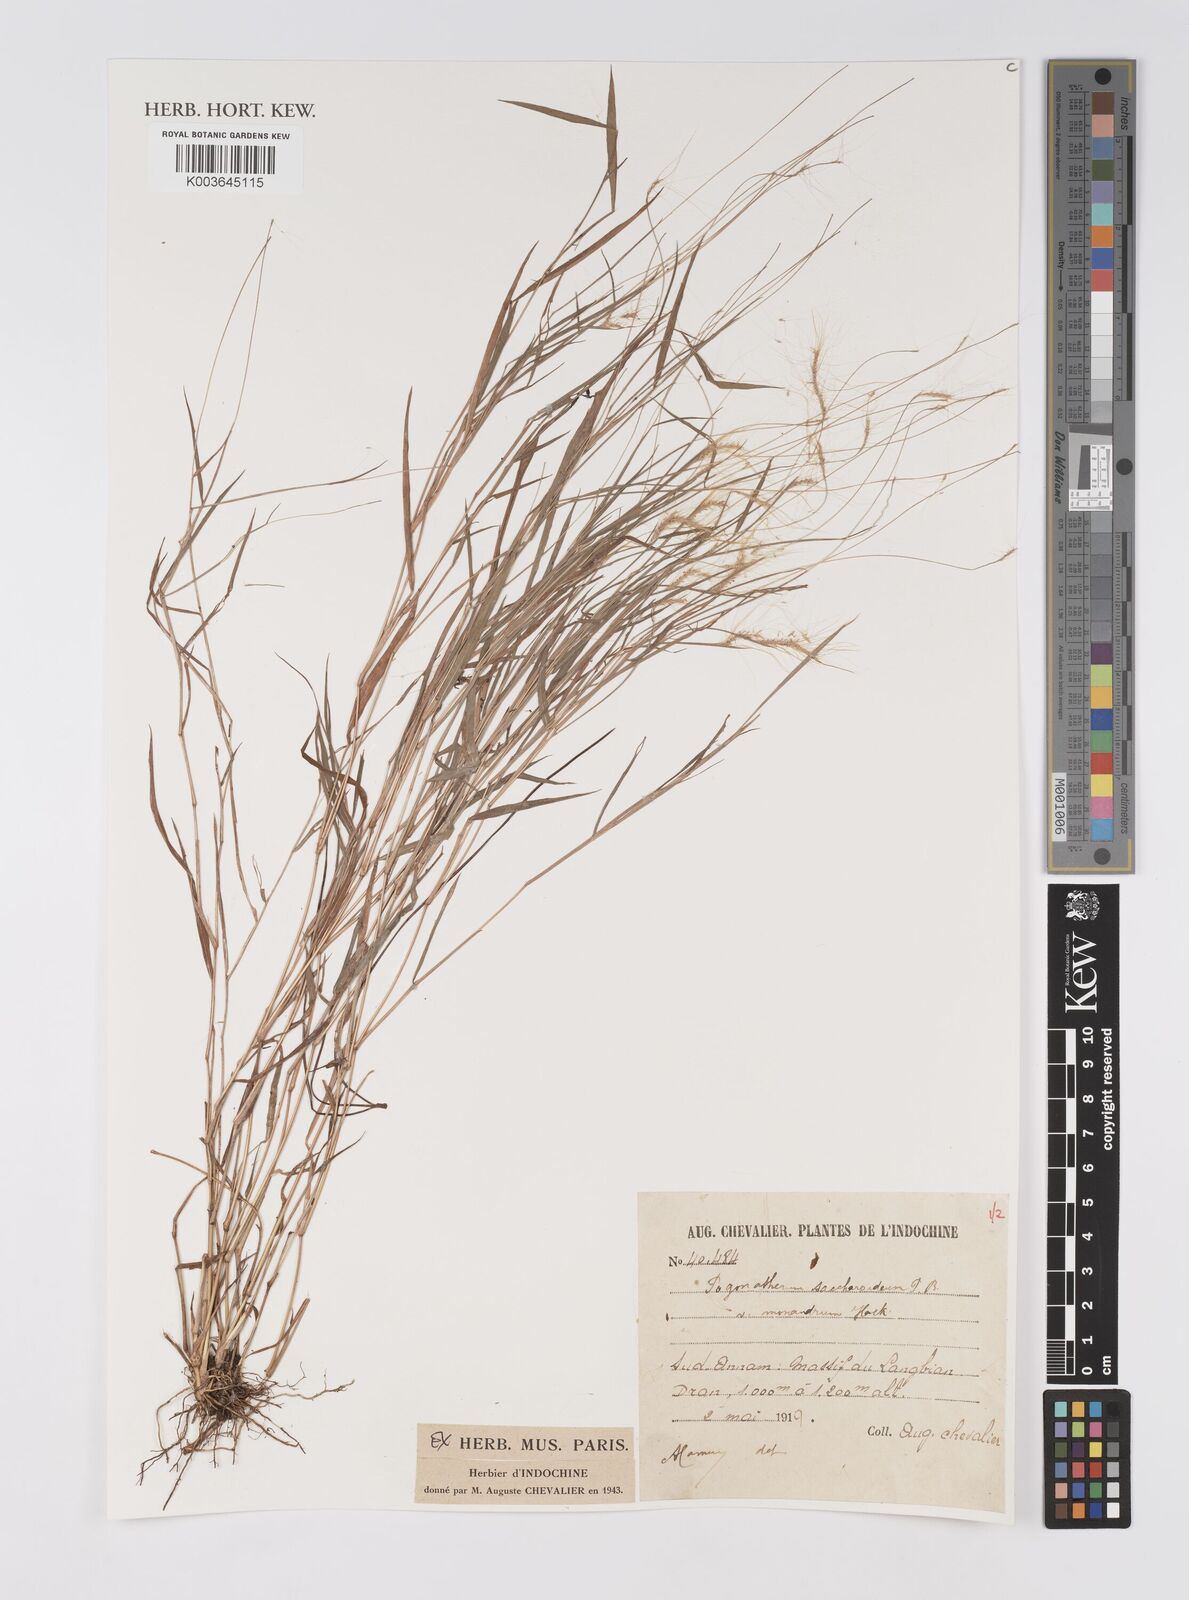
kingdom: Plantae
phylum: Tracheophyta
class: Liliopsida
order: Poales
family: Poaceae
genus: Pogonatherum
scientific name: Pogonatherum paniceum
